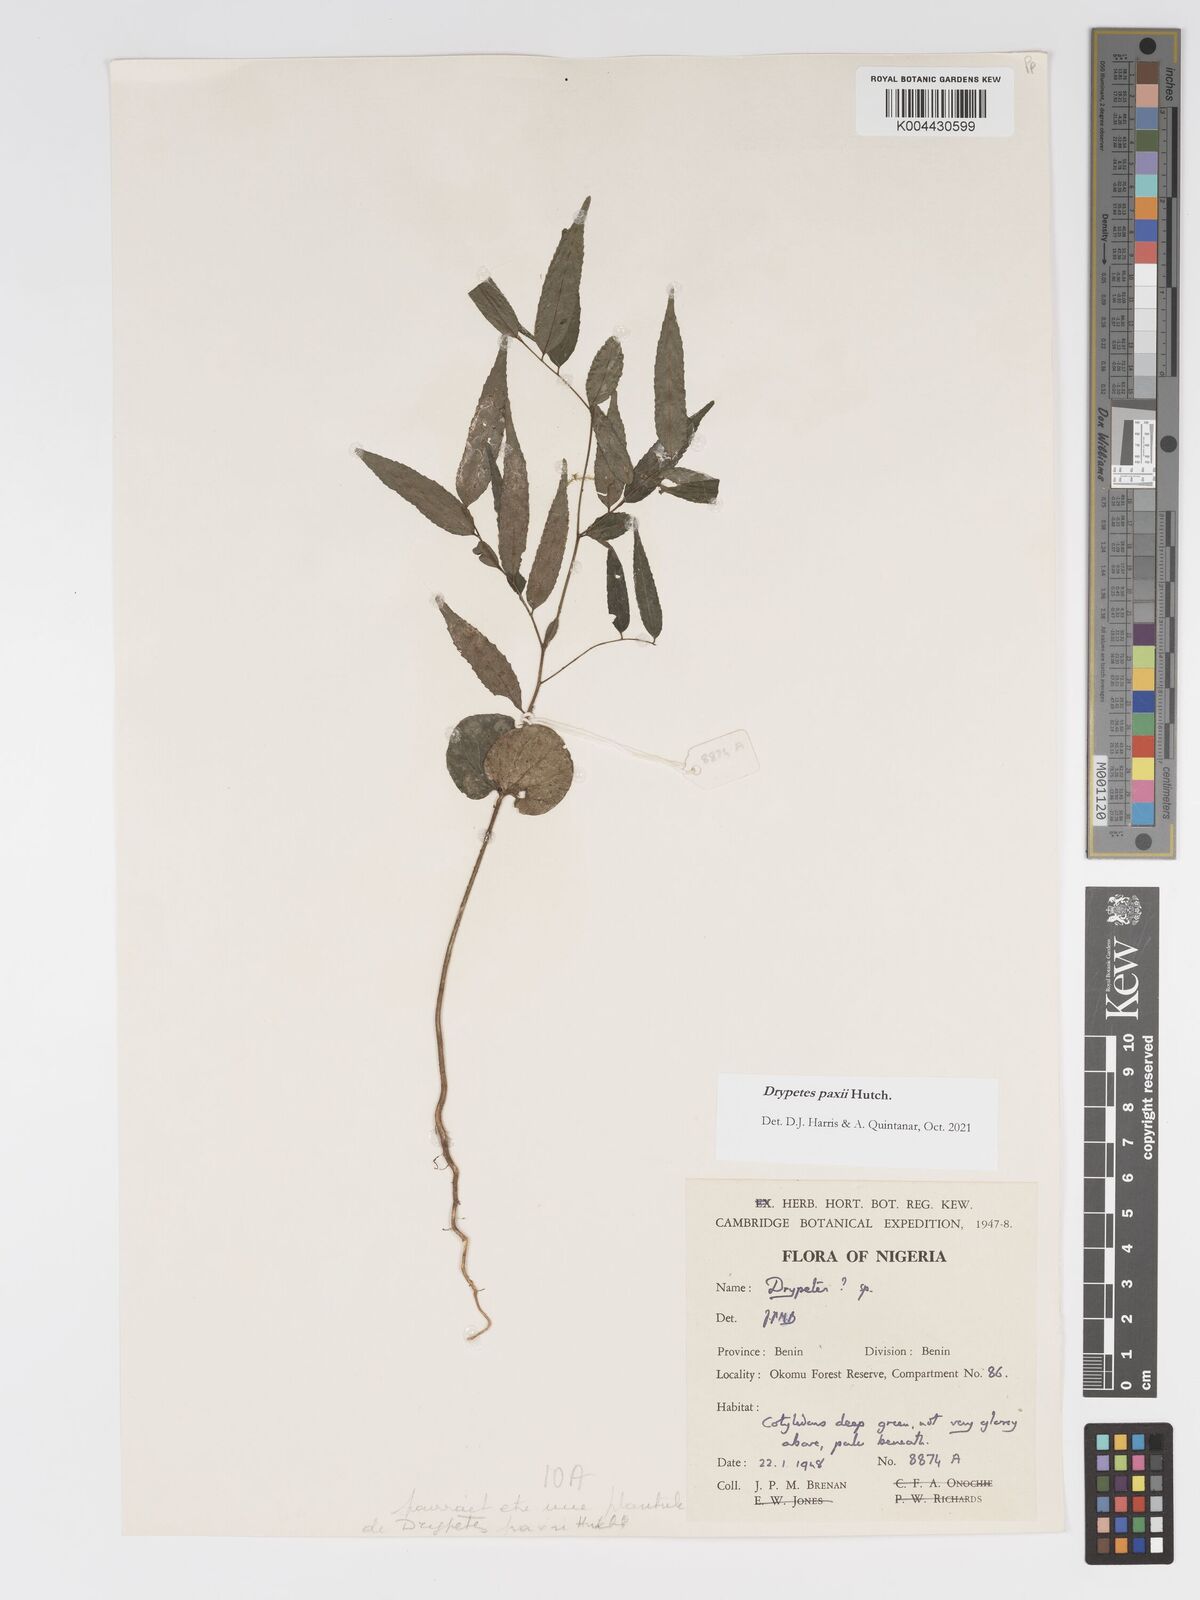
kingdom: Plantae
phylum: Tracheophyta
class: Magnoliopsida
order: Malpighiales
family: Putranjivaceae
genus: Drypetes
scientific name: Drypetes paxii
